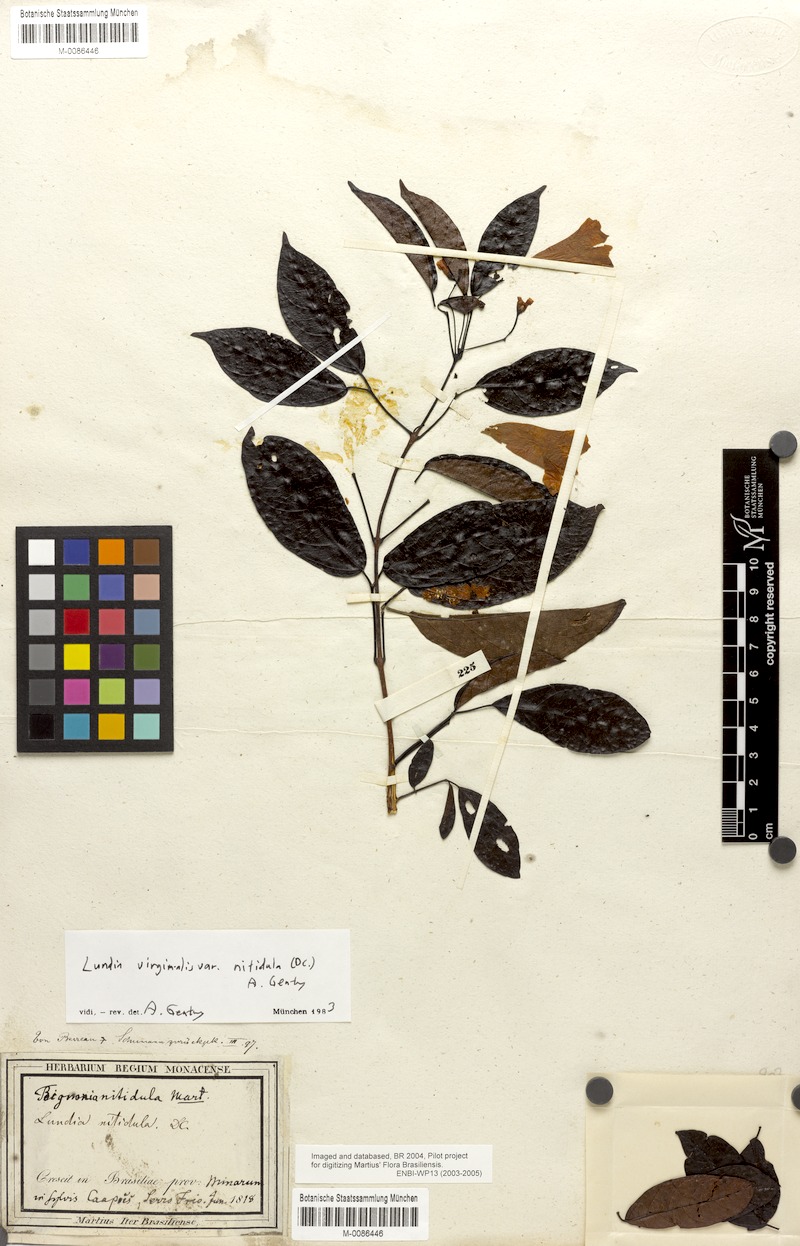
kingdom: Plantae
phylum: Tracheophyta
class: Magnoliopsida
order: Lamiales
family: Bignoniaceae
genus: Lundia
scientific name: Lundia virginalis
